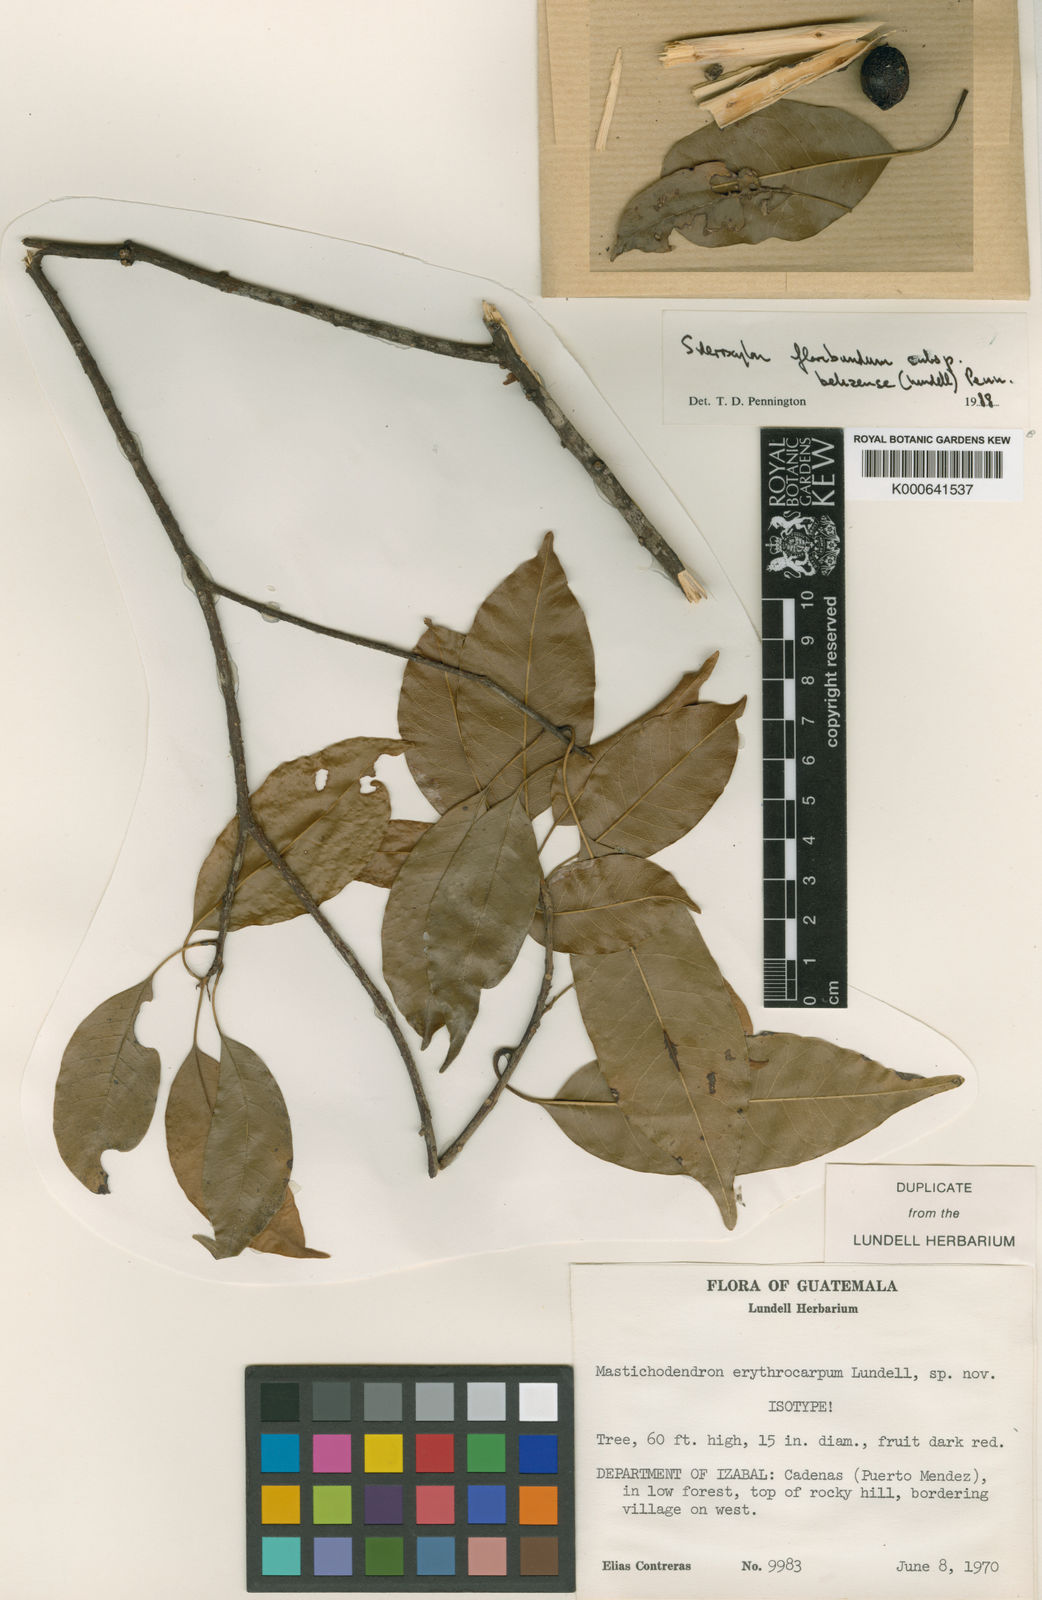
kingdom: Plantae
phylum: Tracheophyta
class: Magnoliopsida
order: Ericales
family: Sapotaceae
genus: Sideroxylon
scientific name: Sideroxylon floribundum
